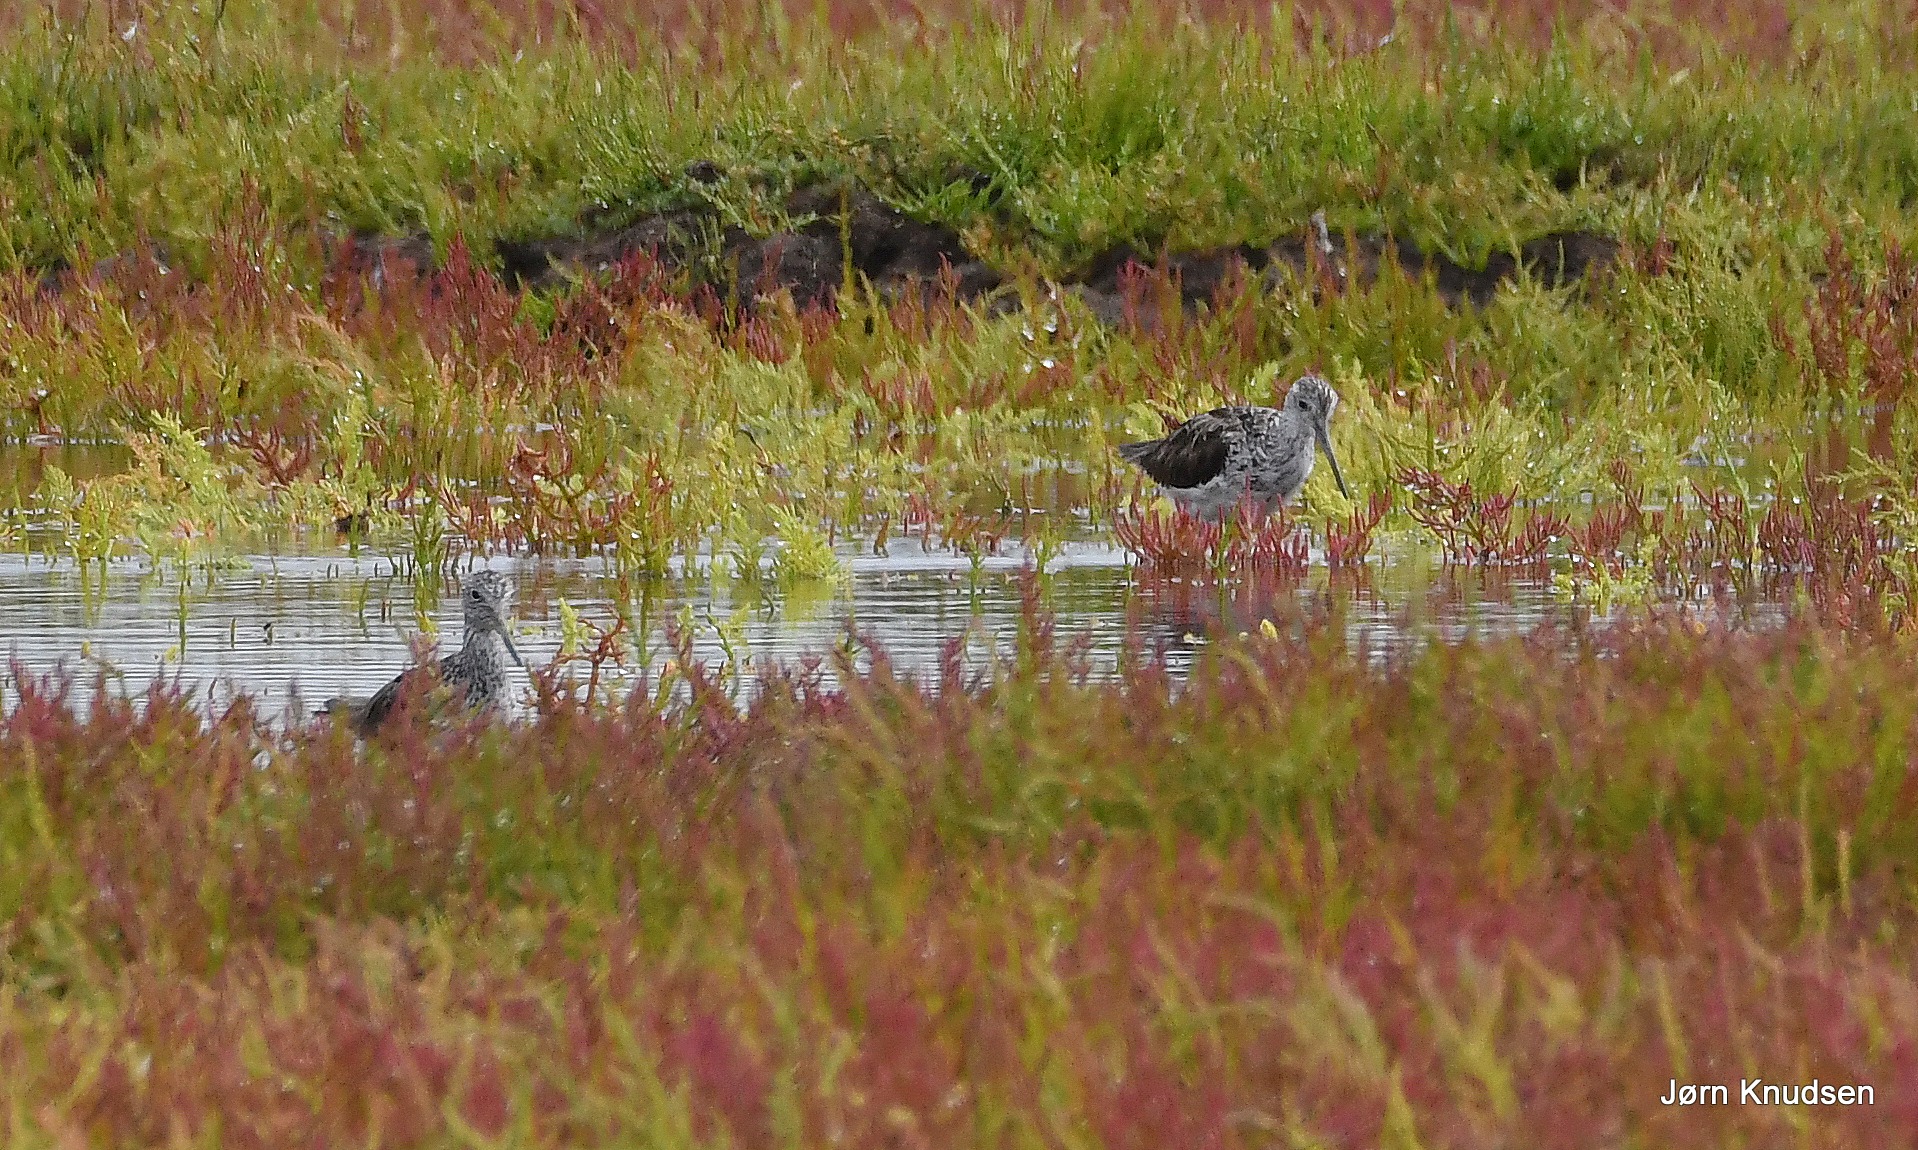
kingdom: Animalia
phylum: Chordata
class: Aves
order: Charadriiformes
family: Scolopacidae
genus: Tringa
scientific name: Tringa nebularia
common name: Hvidklire
